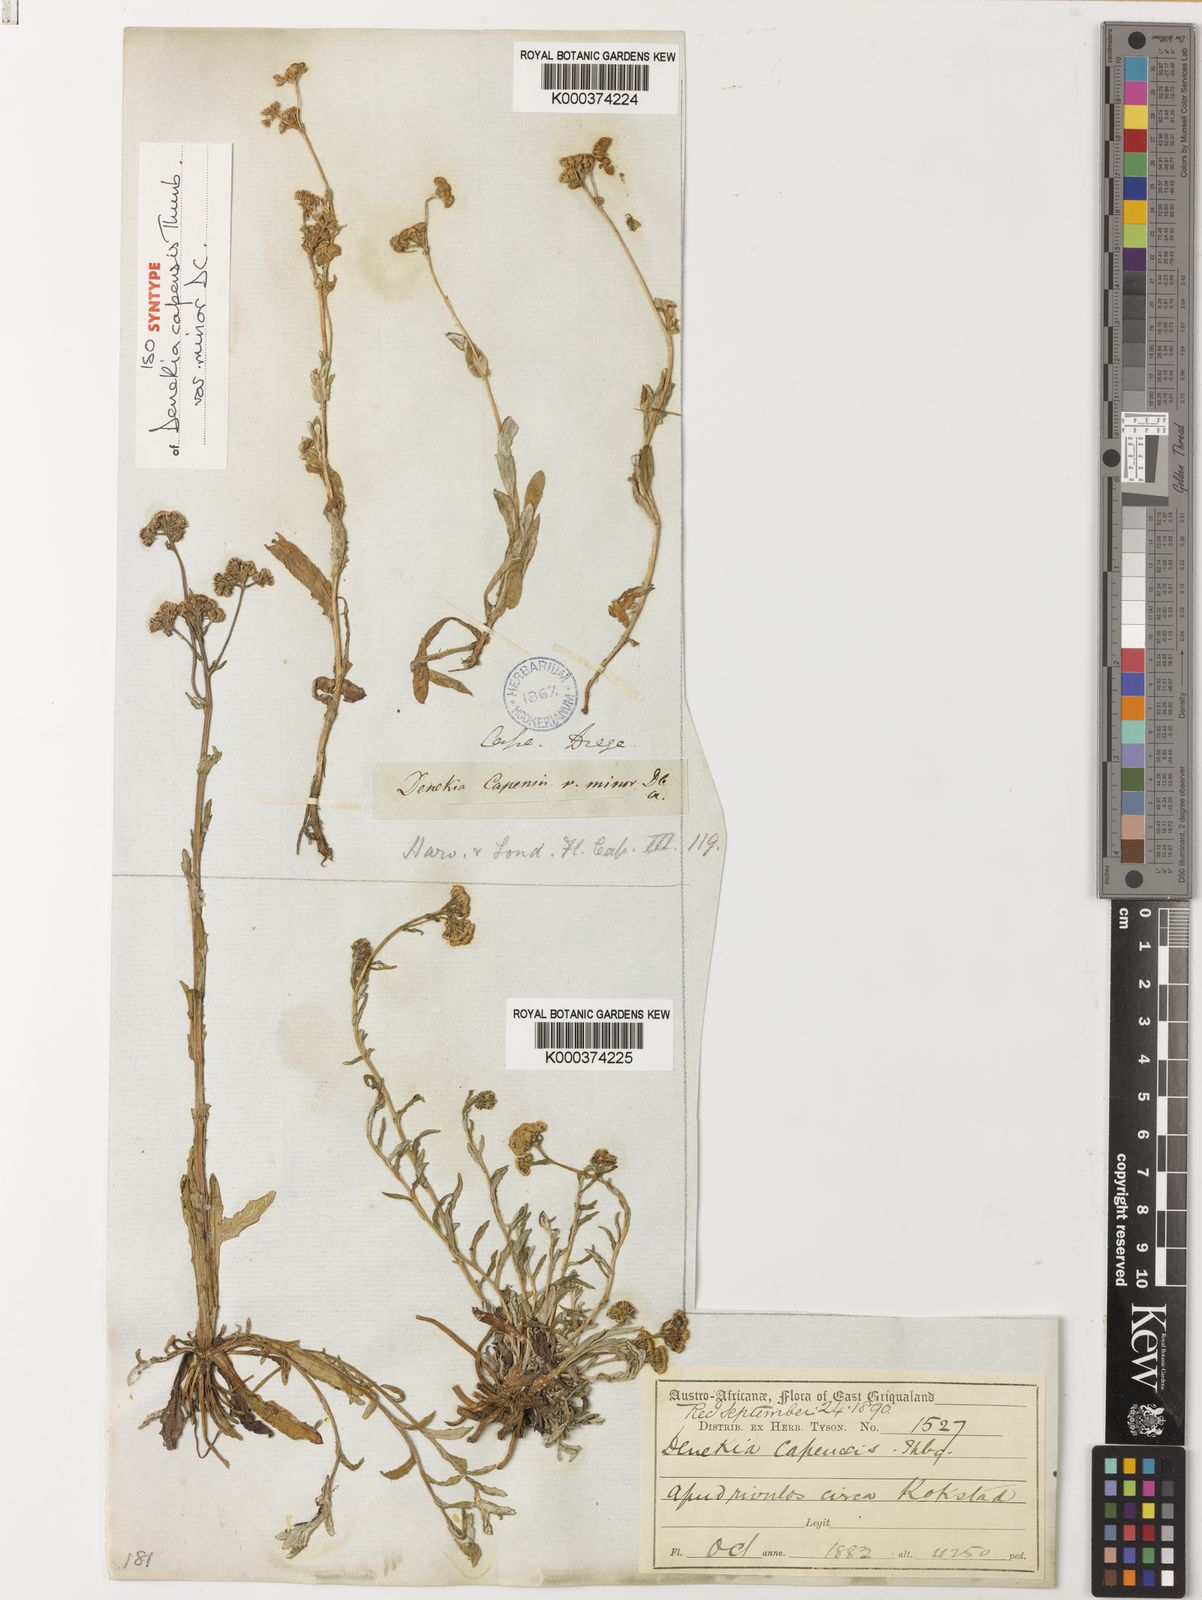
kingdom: Plantae
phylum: Tracheophyta
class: Magnoliopsida
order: Asterales
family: Asteraceae
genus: Denekia
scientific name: Denekia capensis
